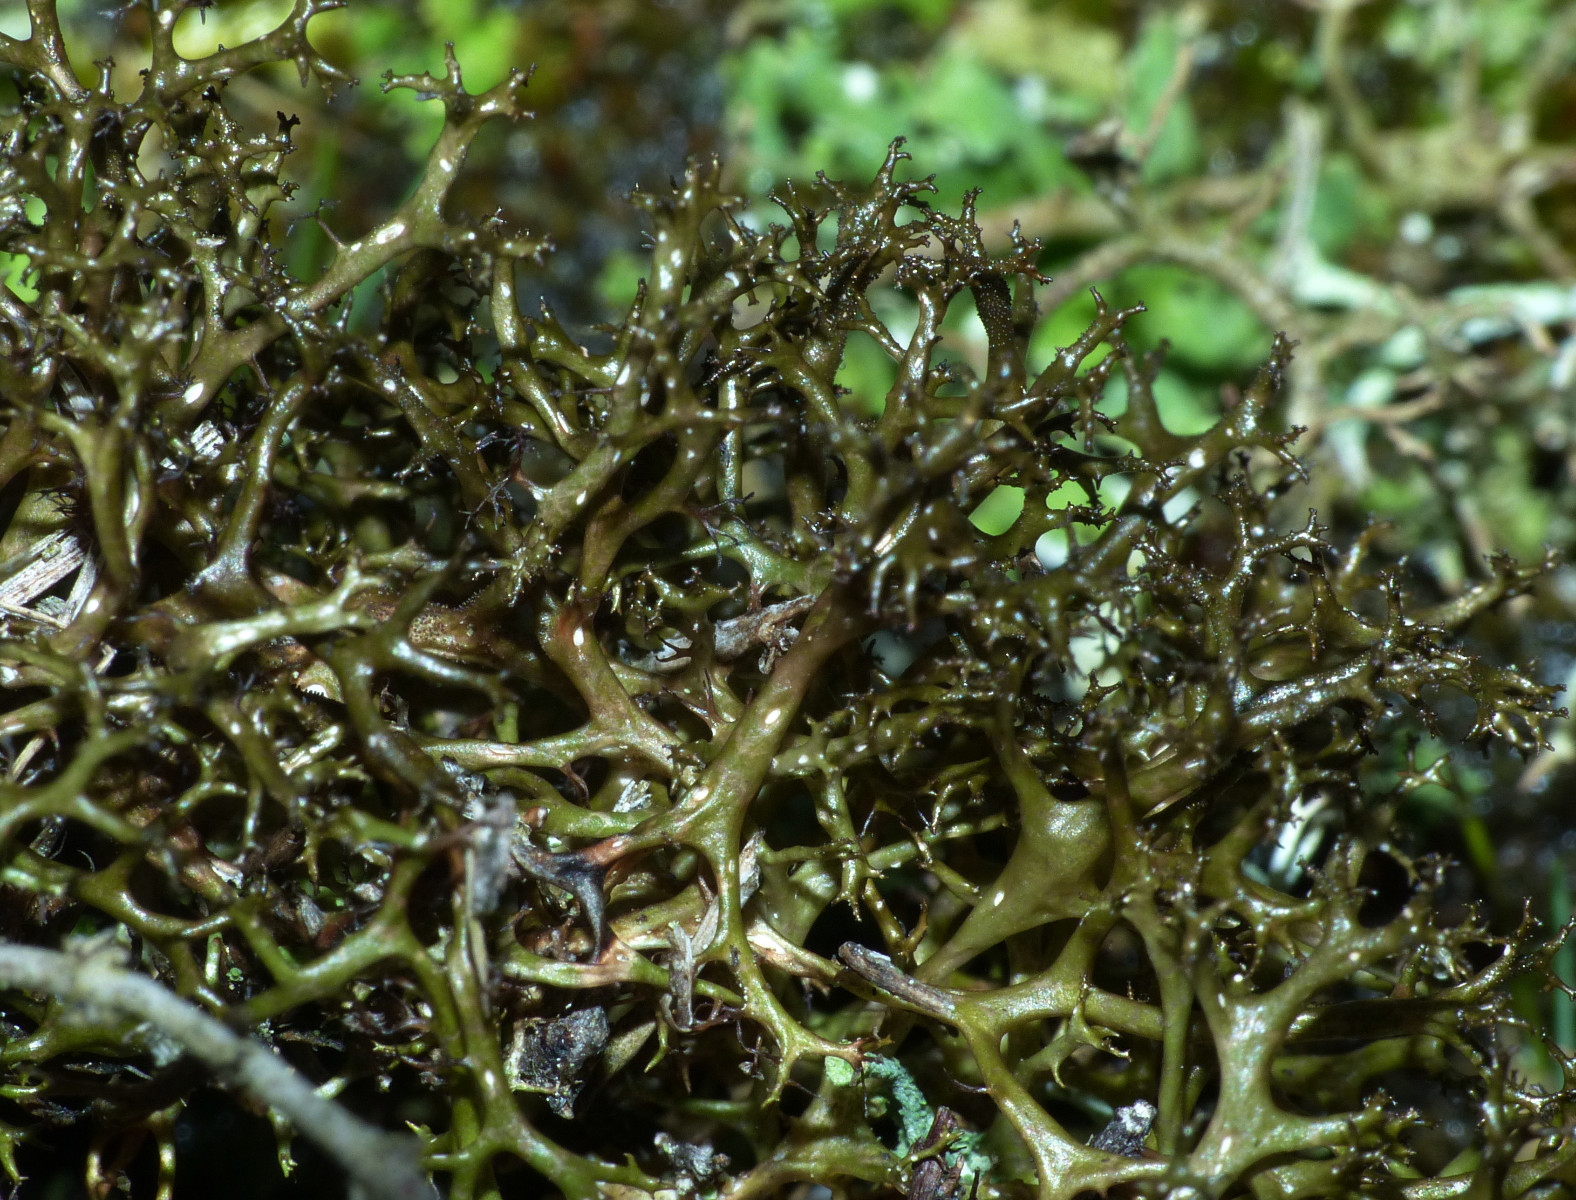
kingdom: Fungi
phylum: Ascomycota
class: Lecanoromycetes
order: Lecanorales
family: Parmeliaceae
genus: Cetraria
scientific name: Cetraria aculeata
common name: grubet tjørnelav
